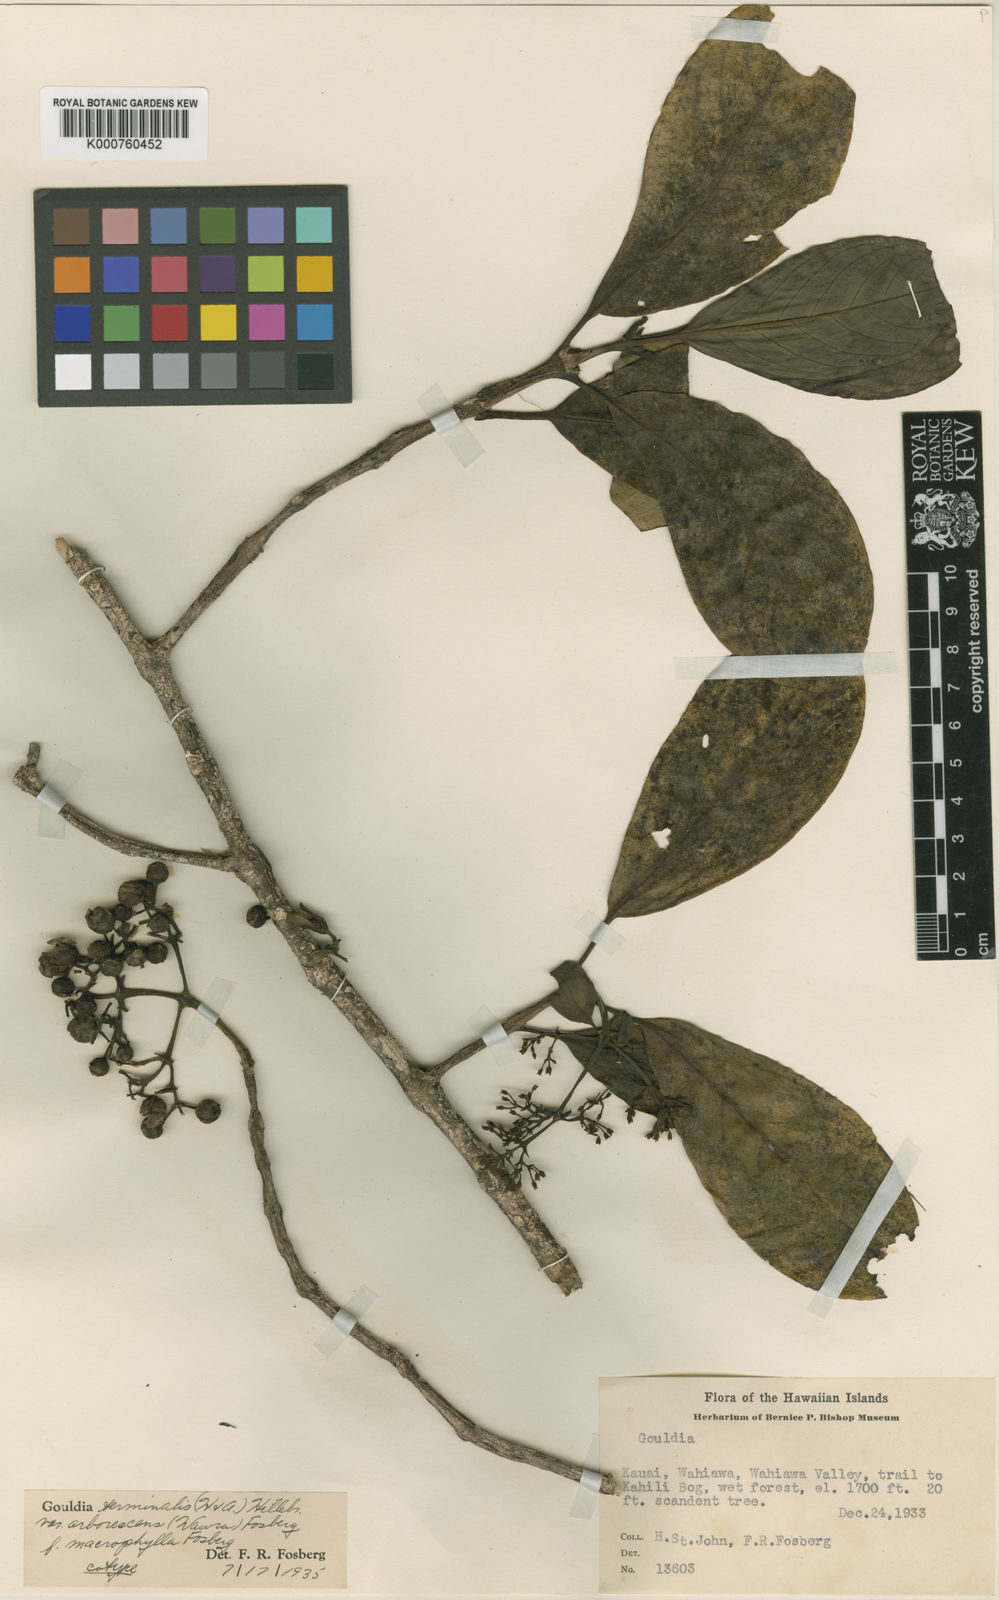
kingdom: Plantae
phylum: Tracheophyta
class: Magnoliopsida
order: Gentianales
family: Rubiaceae
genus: Kadua
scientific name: Kadua affinis
